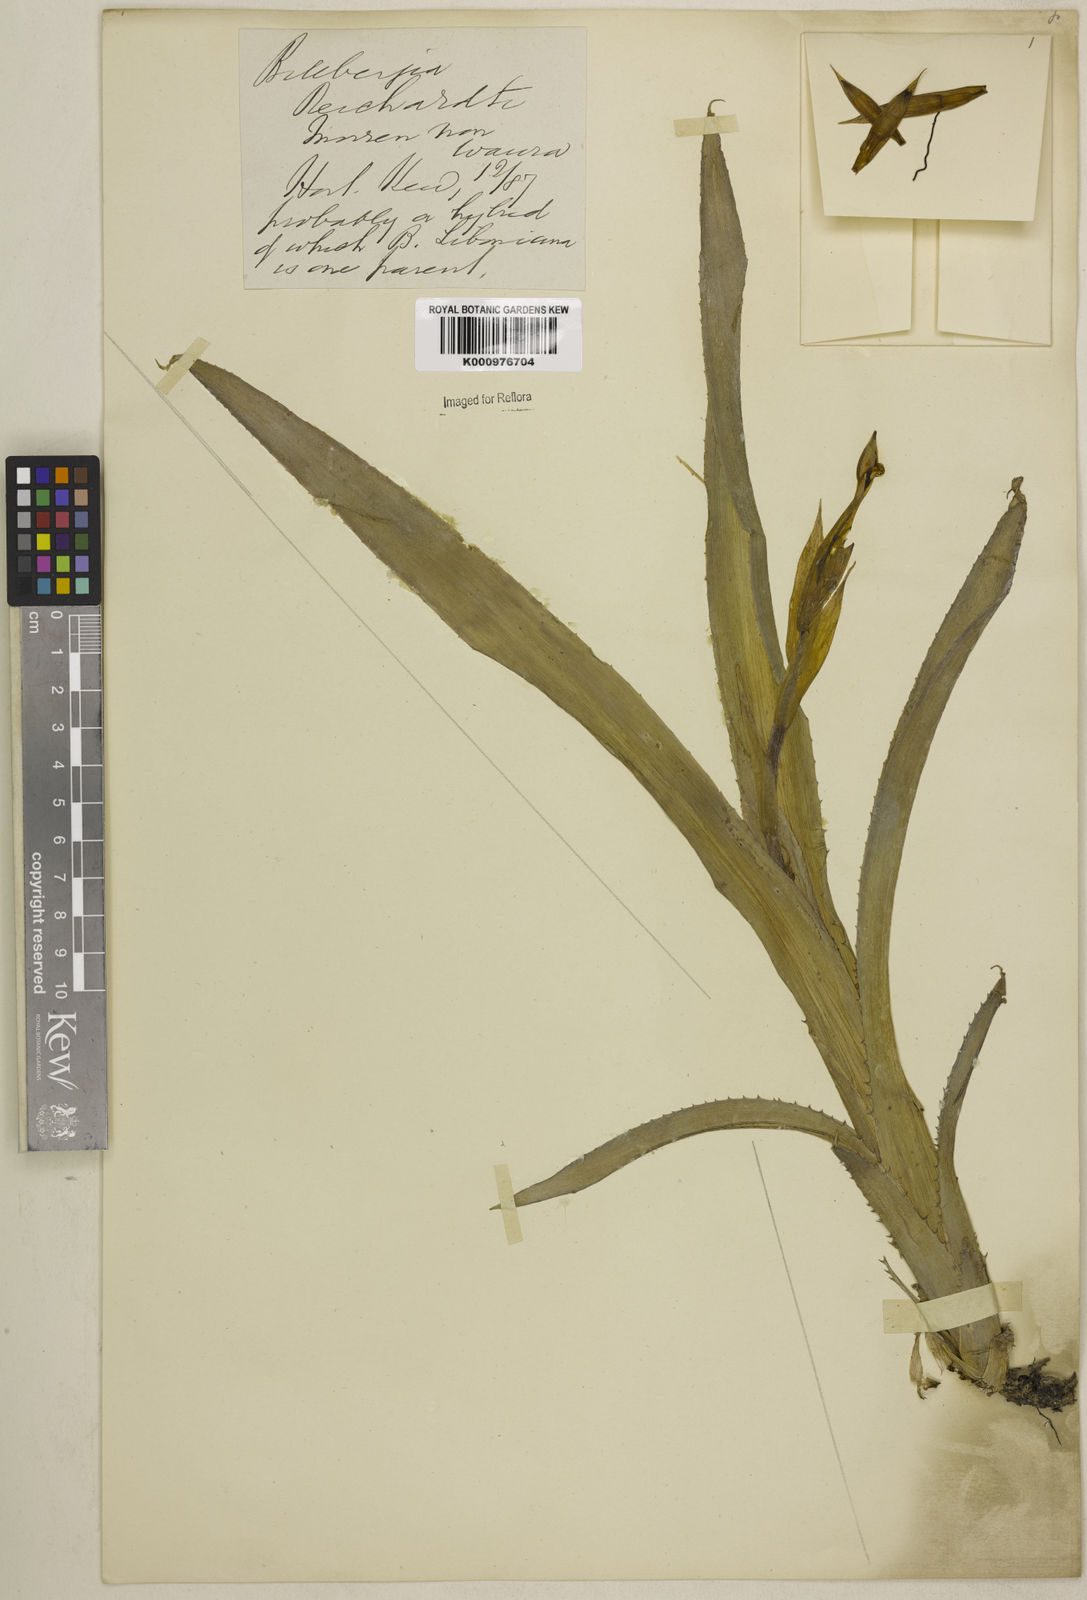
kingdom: Plantae
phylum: Tracheophyta
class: Liliopsida
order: Poales
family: Bromeliaceae
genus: Billbergia
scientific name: Billbergia reichardtii
